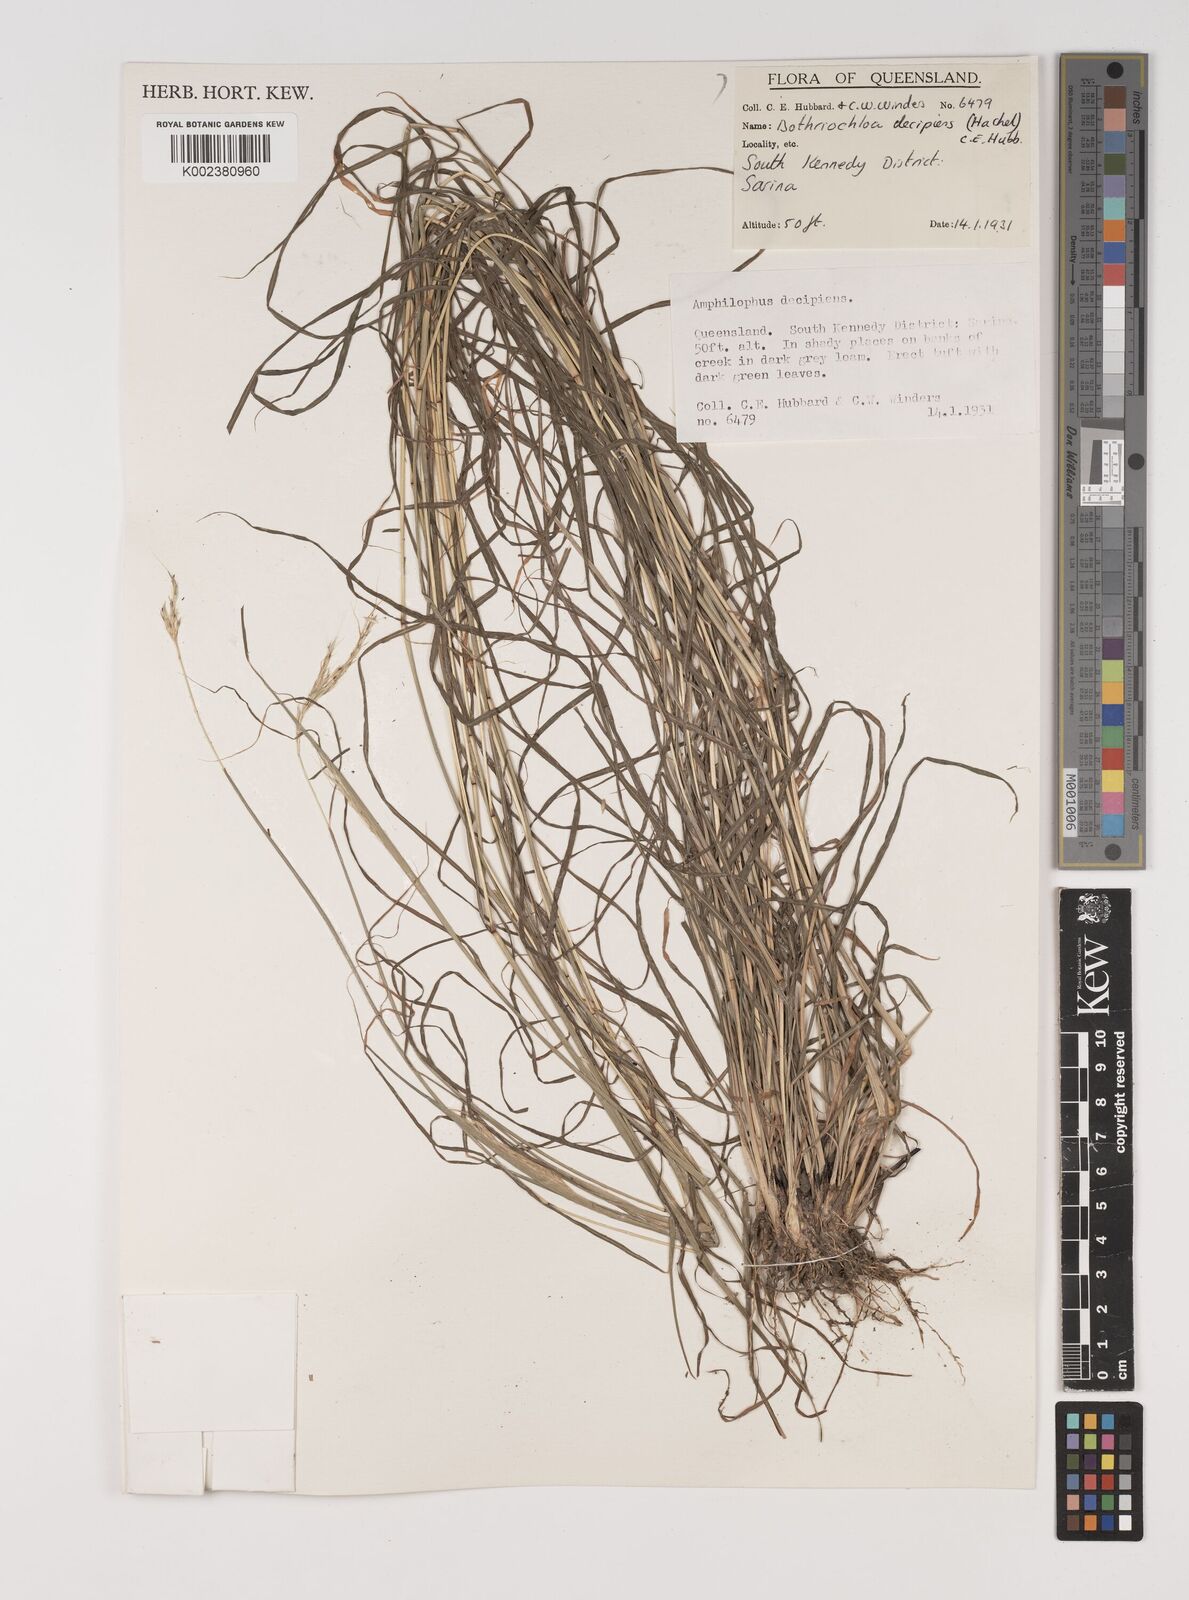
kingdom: Plantae
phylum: Tracheophyta
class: Liliopsida
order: Poales
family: Poaceae
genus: Bothriochloa
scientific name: Bothriochloa decipiens
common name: Pitted-bluegrass
